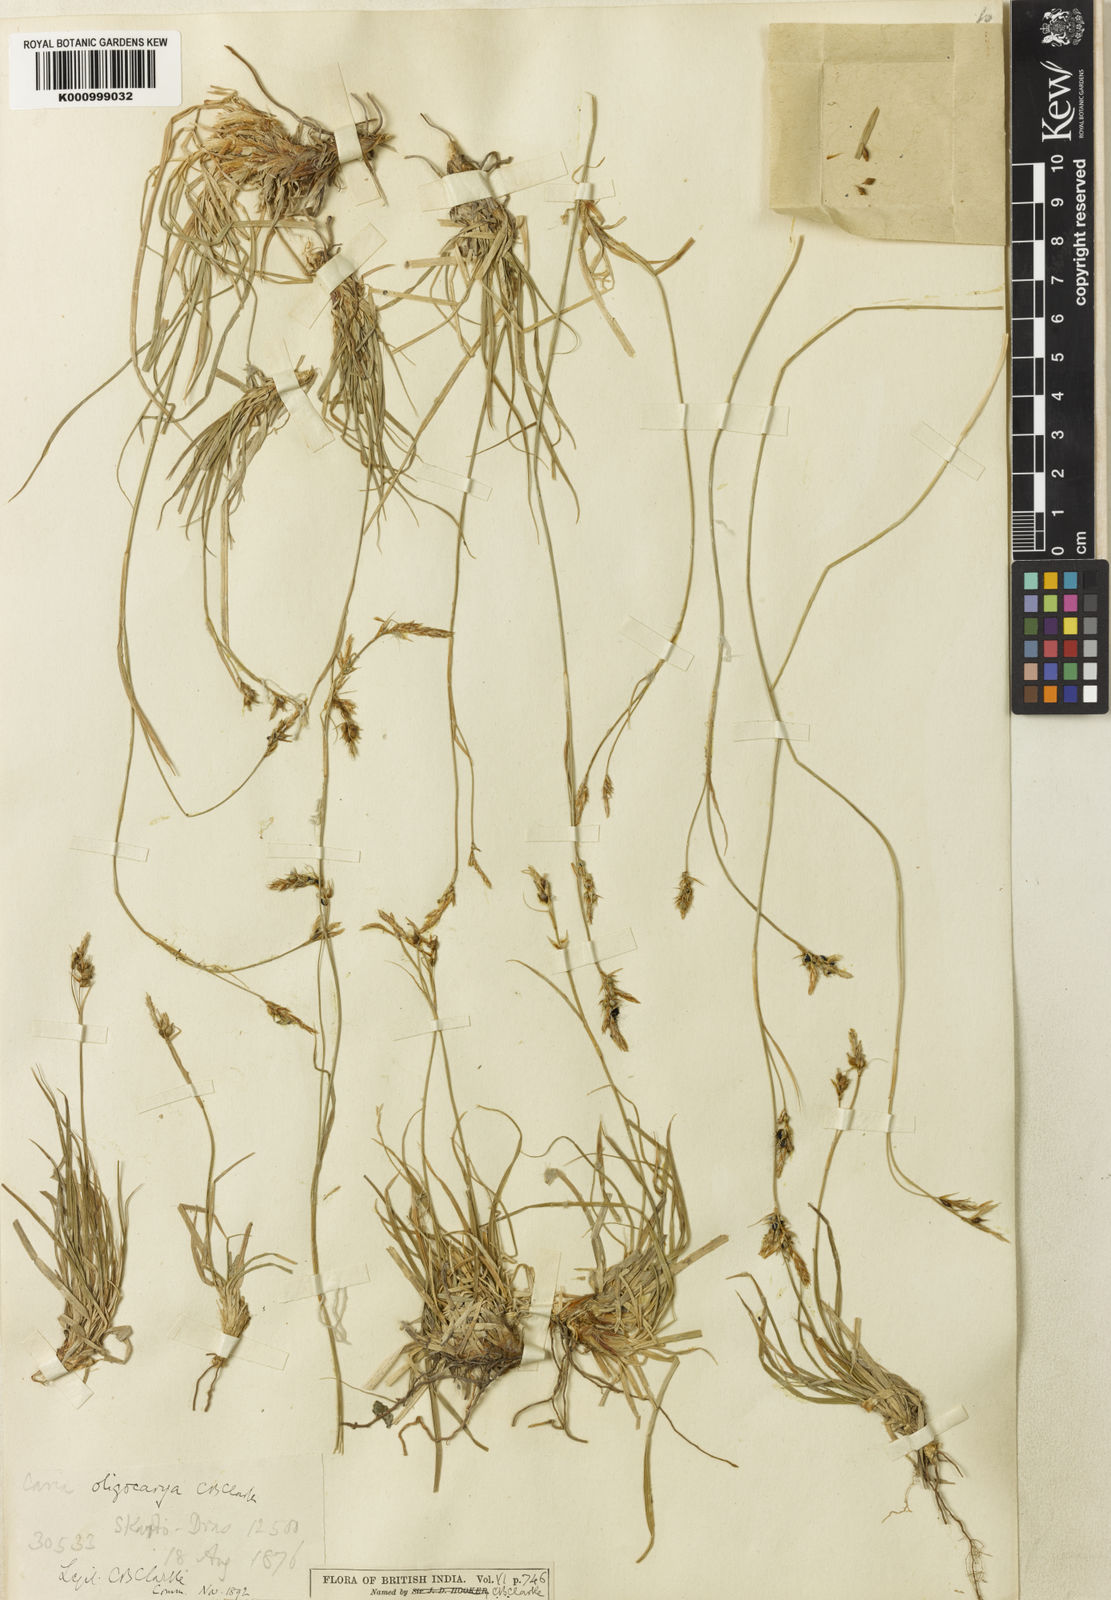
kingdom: Plantae
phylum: Tracheophyta
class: Liliopsida
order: Poales
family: Cyperaceae
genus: Carex
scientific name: Carex
